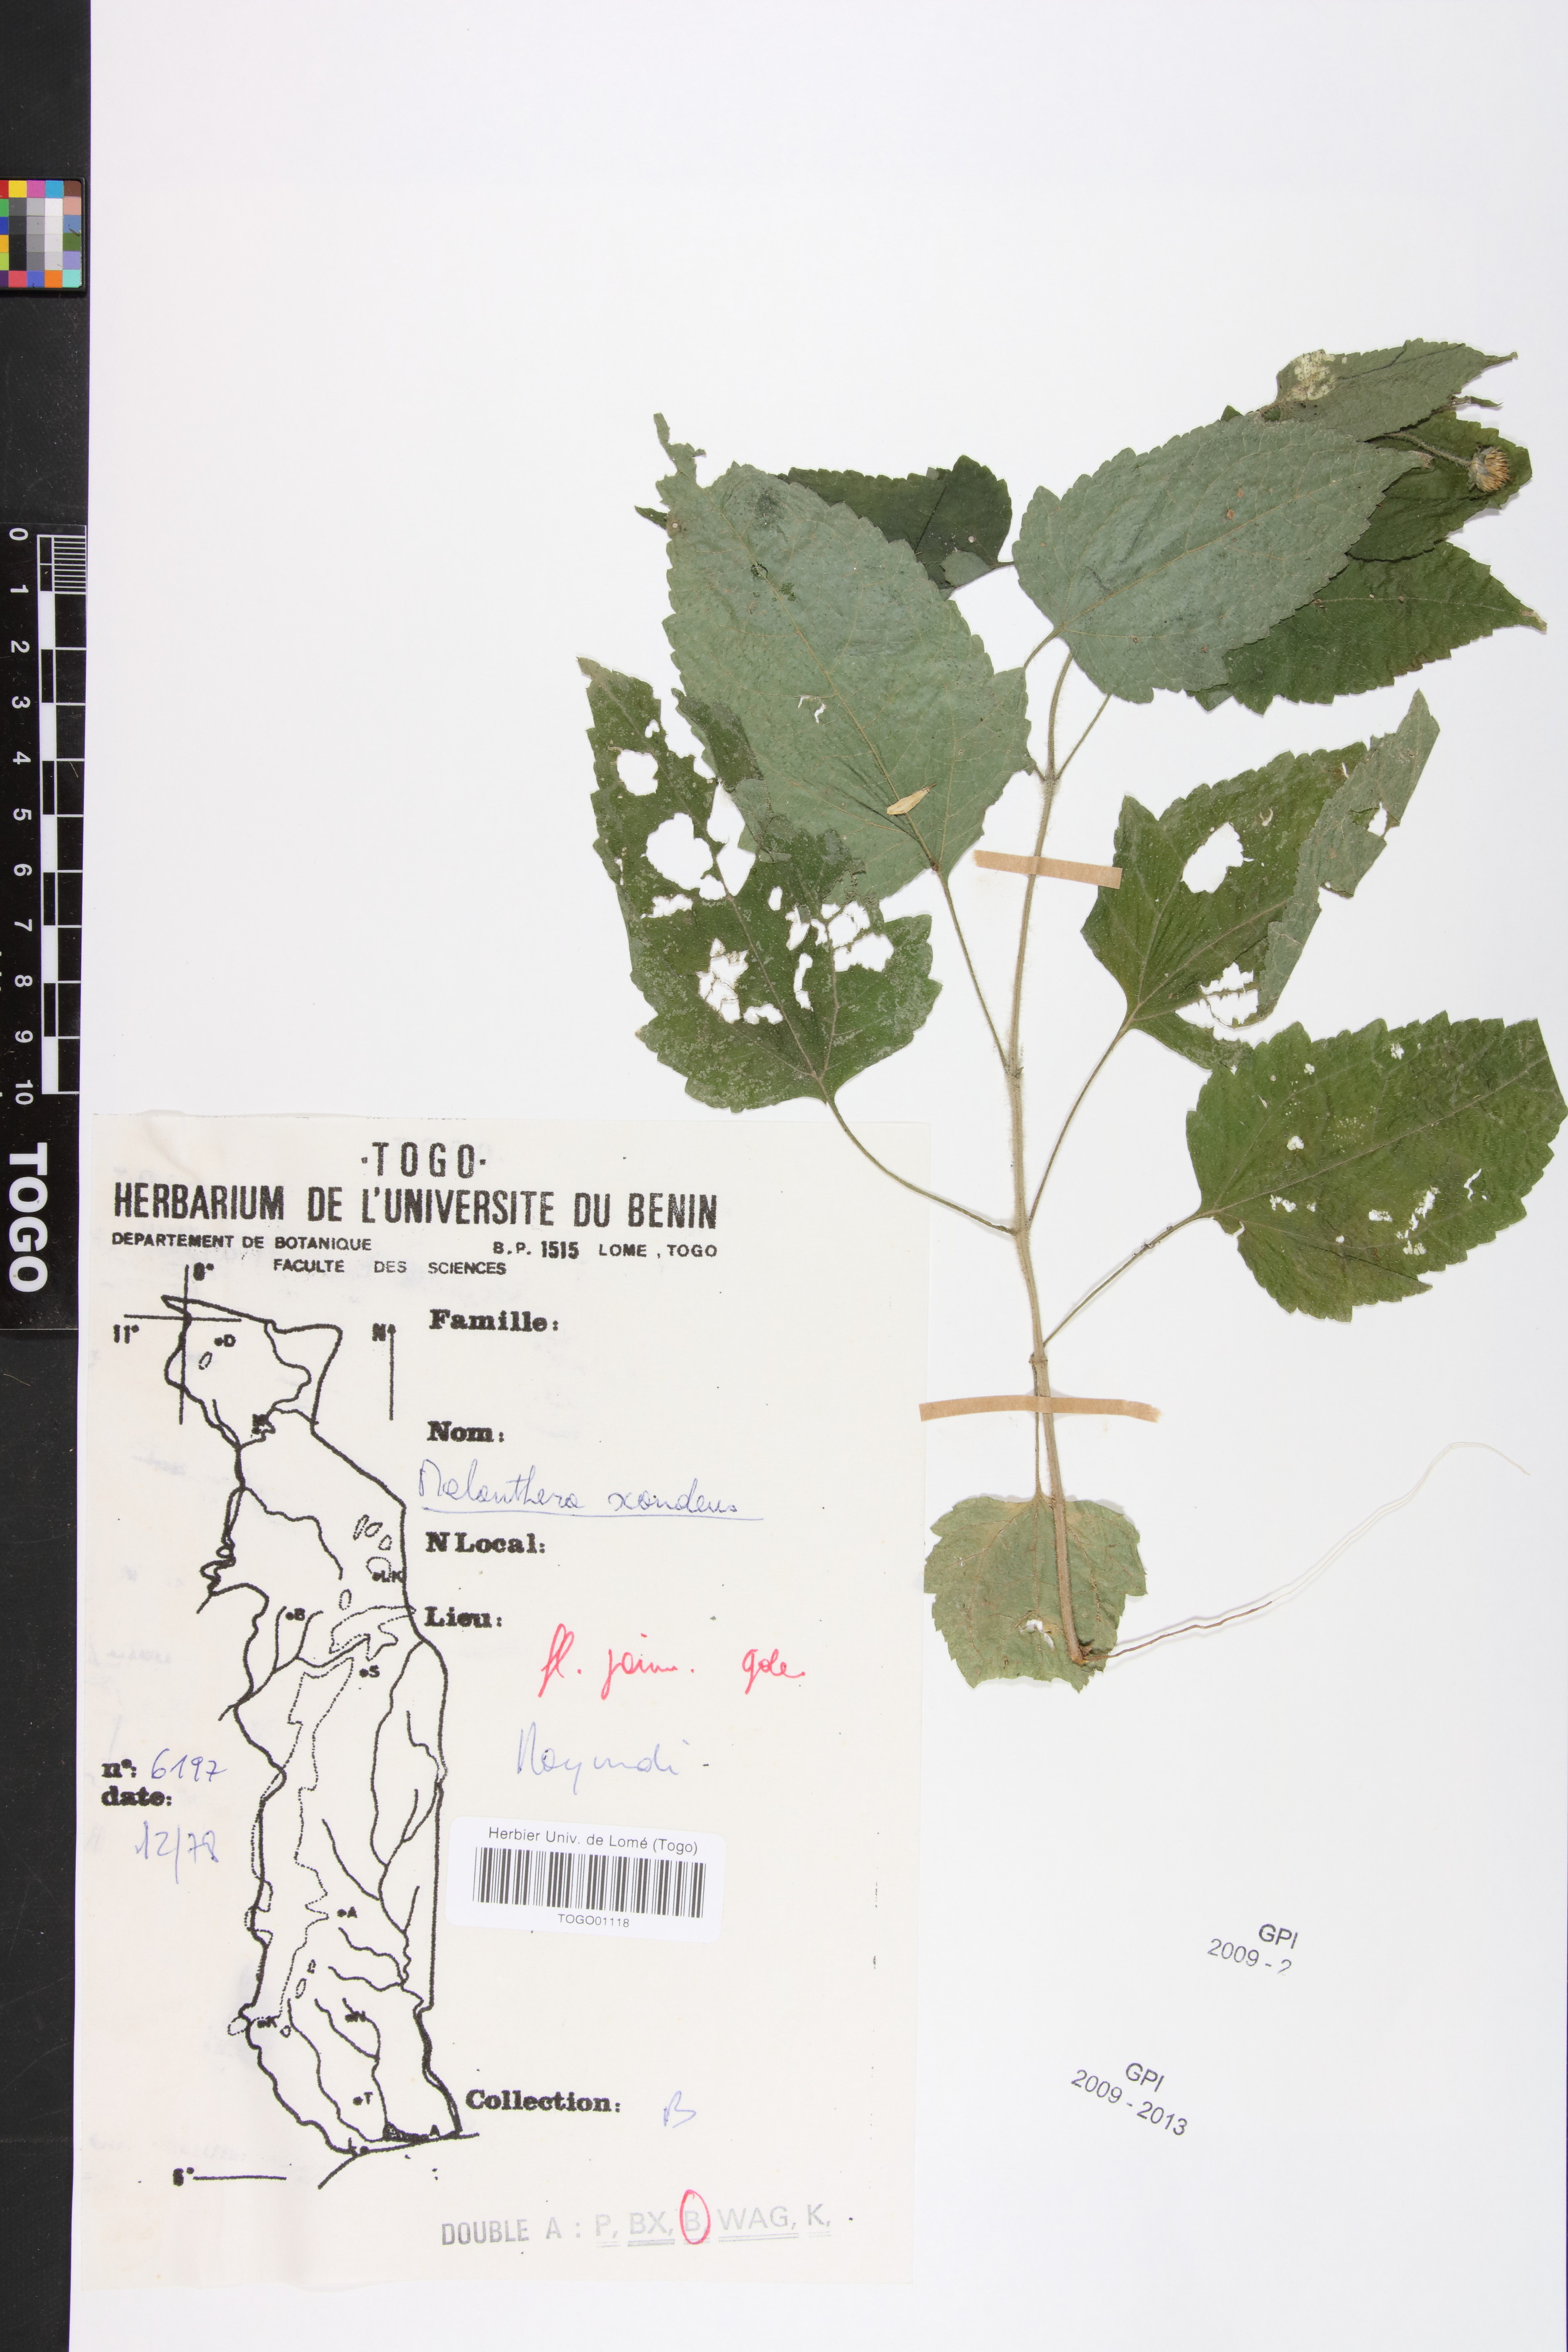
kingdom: Plantae
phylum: Tracheophyta
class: Magnoliopsida
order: Asterales
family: Asteraceae
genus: Melanthera
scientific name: Melanthera scandens
